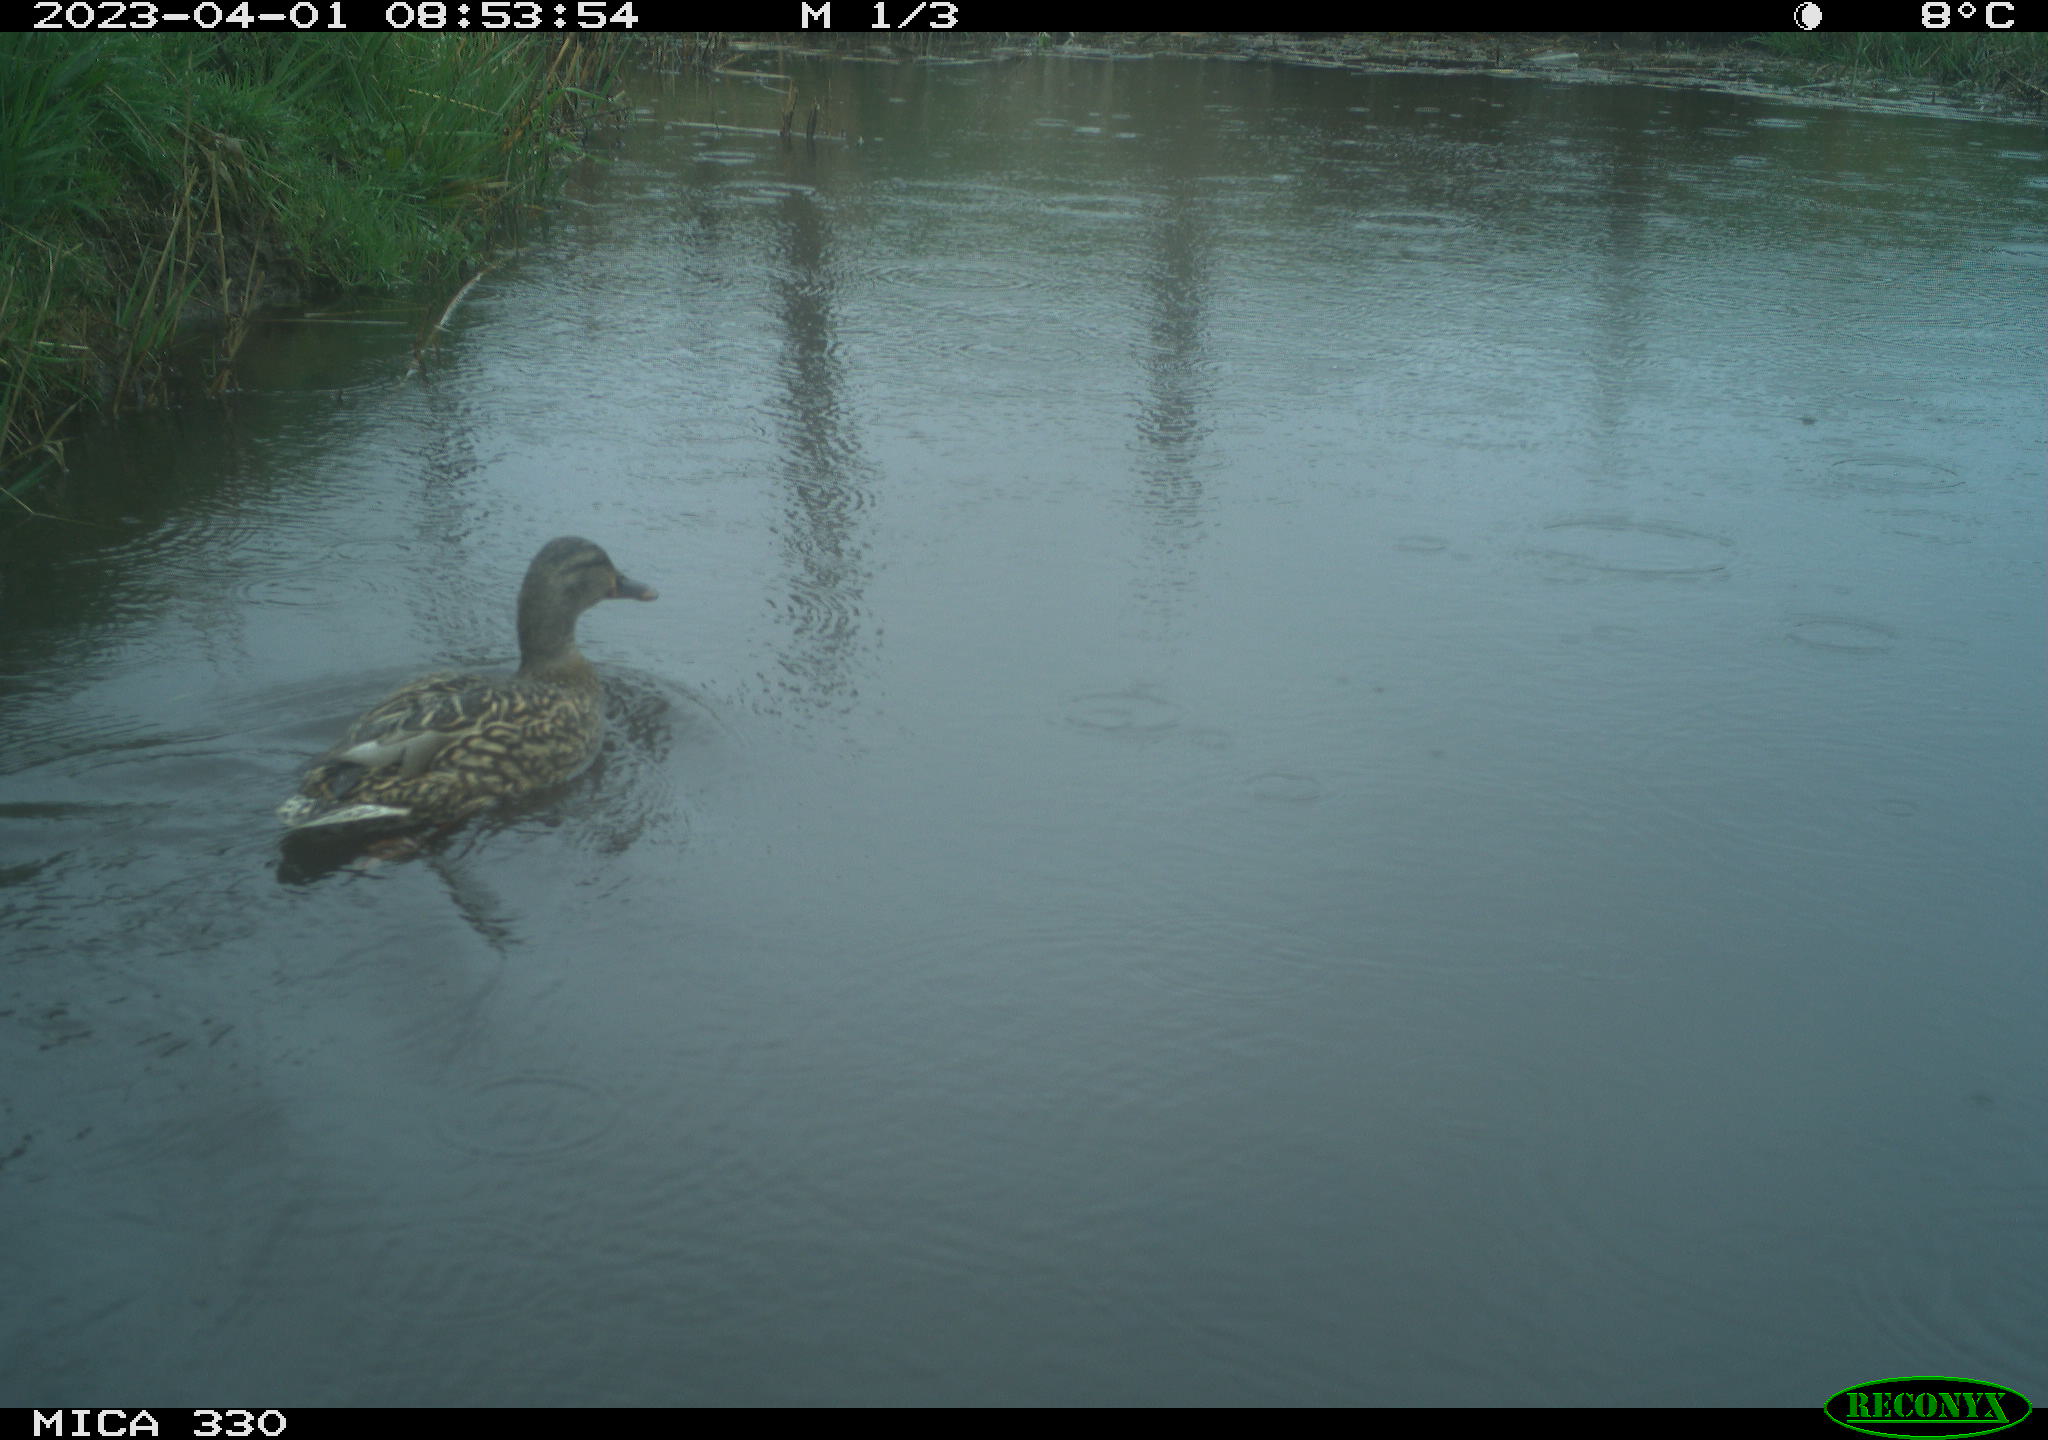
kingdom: Animalia
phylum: Chordata
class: Aves
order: Anseriformes
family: Anatidae
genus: Anas
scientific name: Anas
